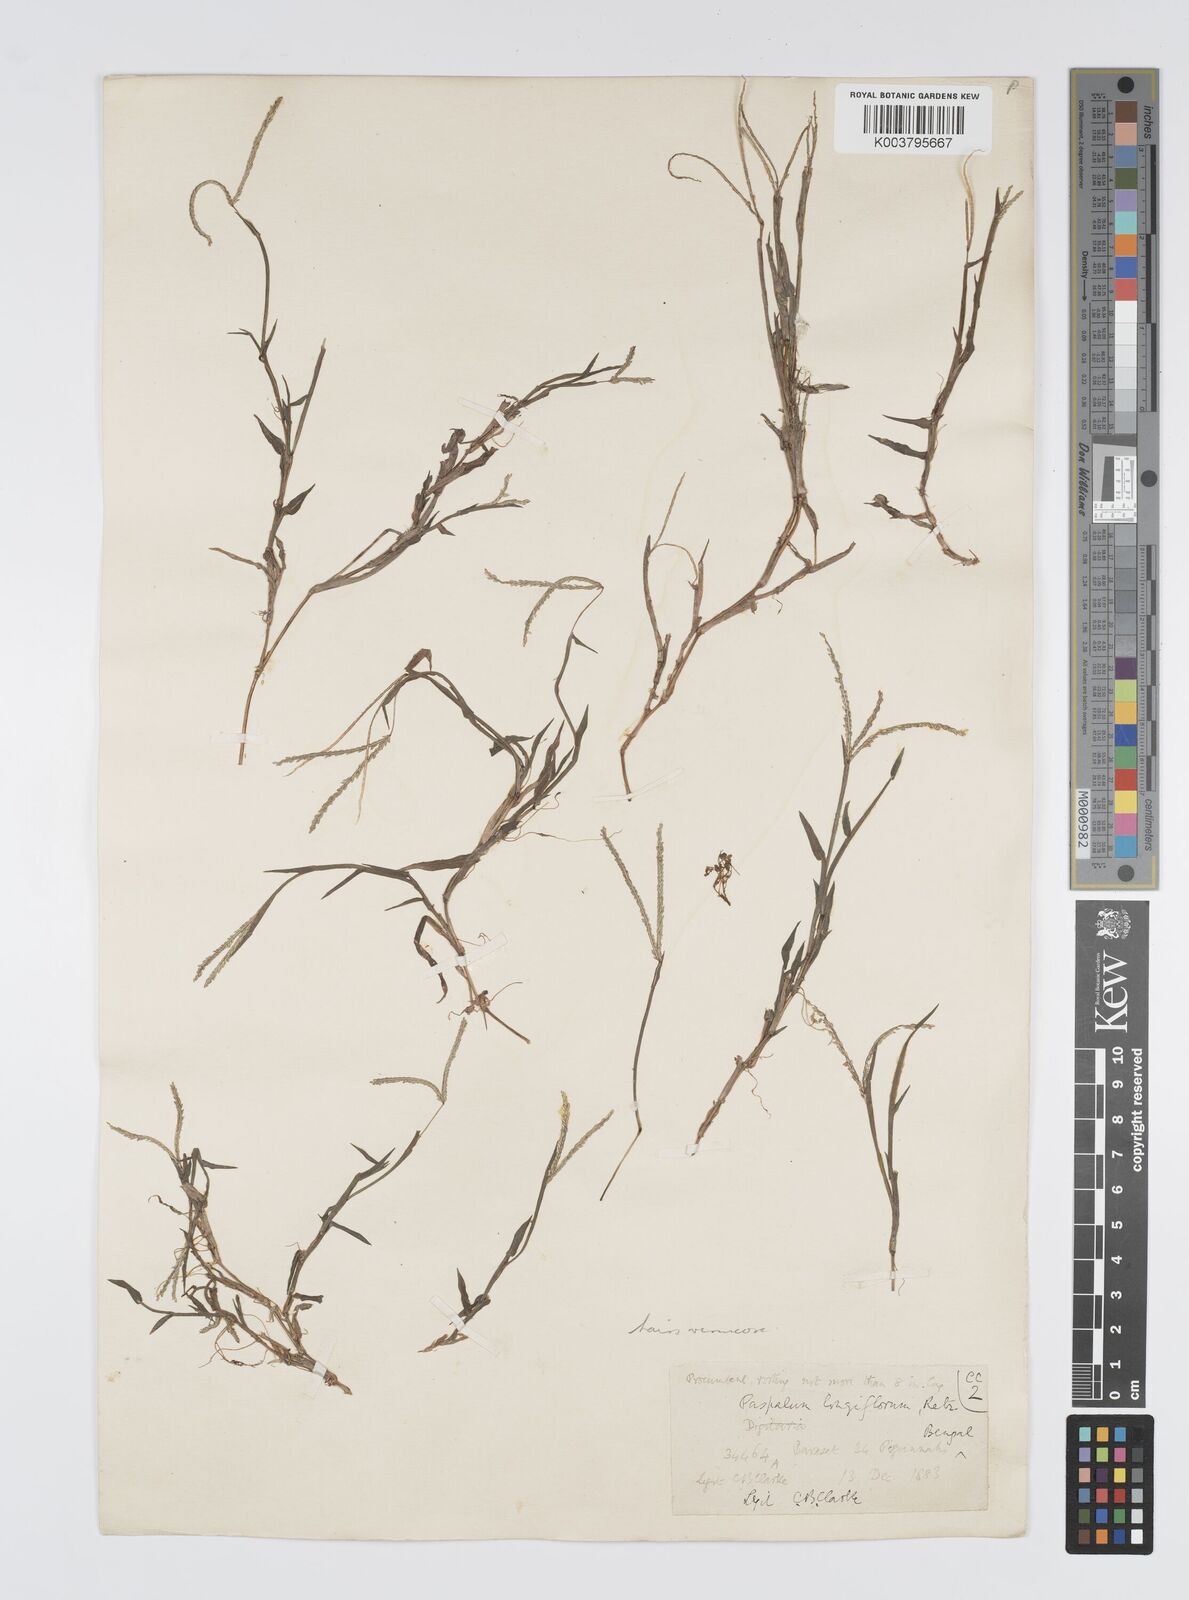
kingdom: Plantae
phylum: Tracheophyta
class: Liliopsida
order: Poales
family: Poaceae
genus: Digitaria
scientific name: Digitaria longiflora
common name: Wire crabgrass
